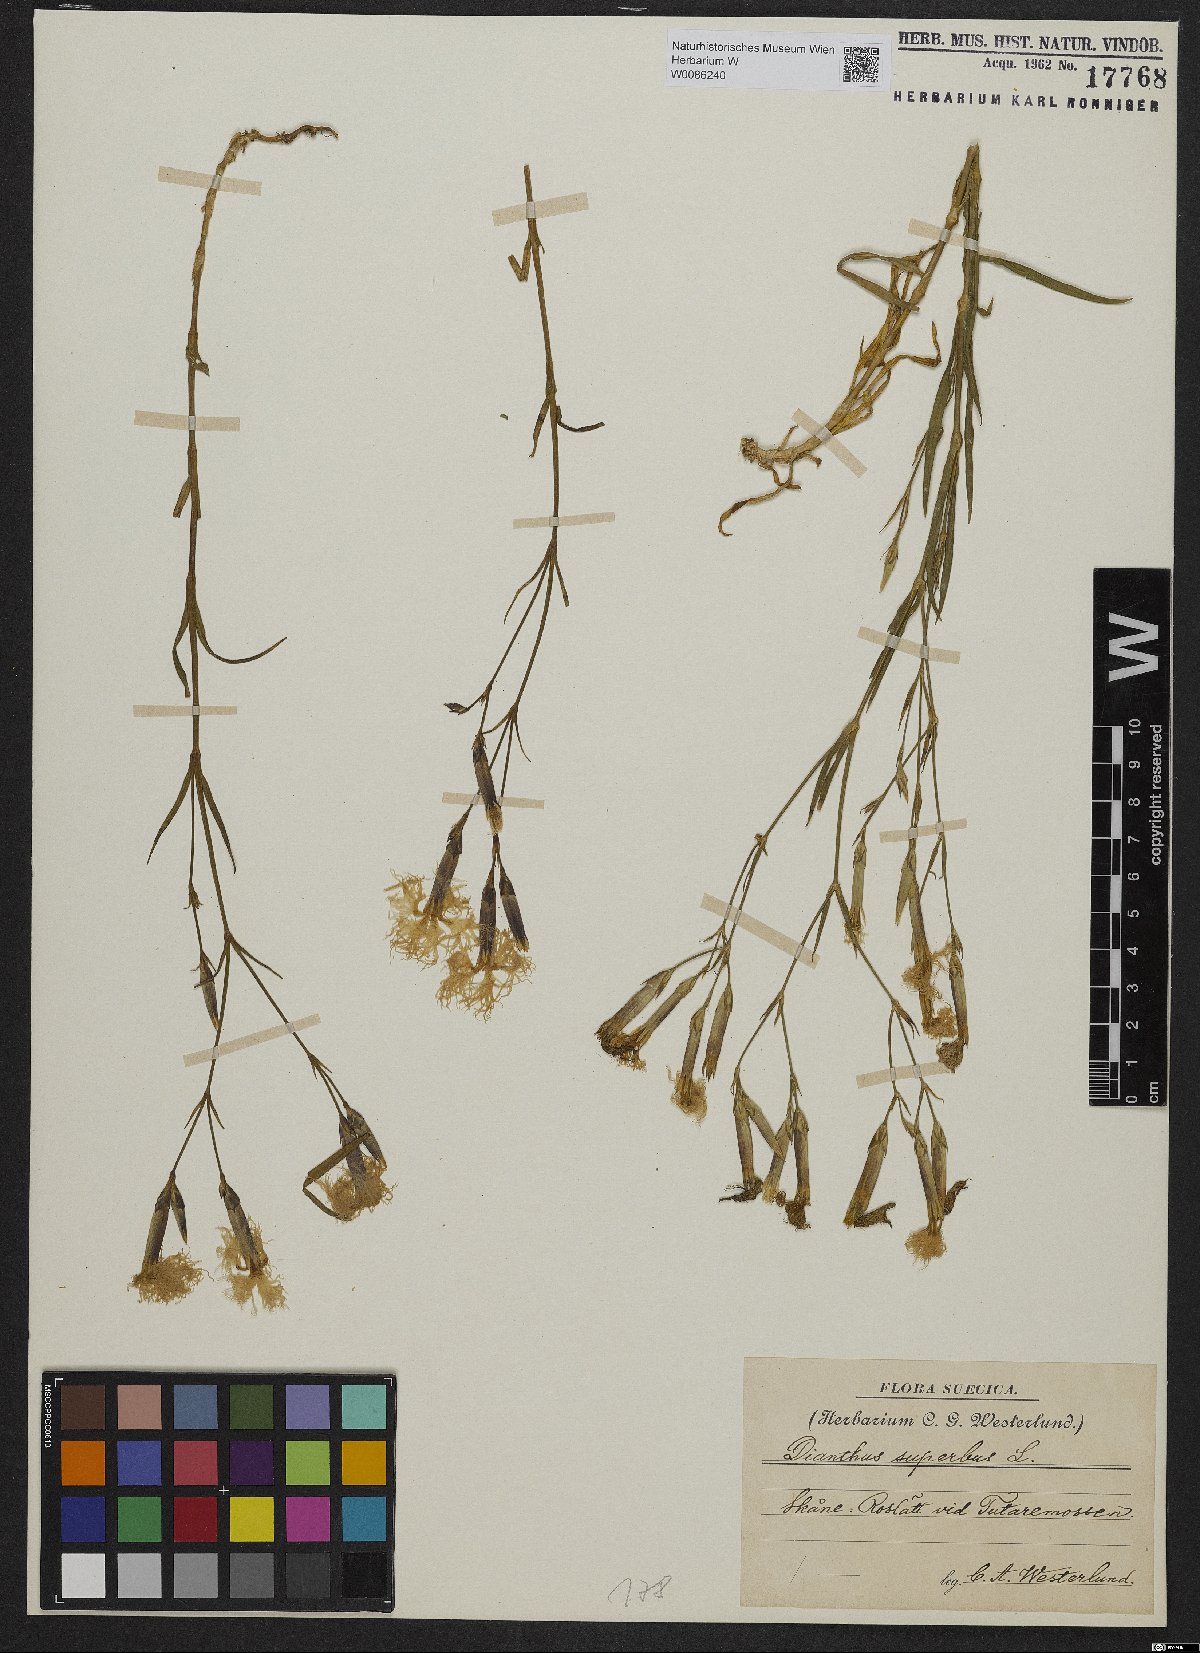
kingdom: Plantae
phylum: Tracheophyta
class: Magnoliopsida
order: Caryophyllales
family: Caryophyllaceae
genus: Dianthus
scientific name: Dianthus superbus
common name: Fringed pink
